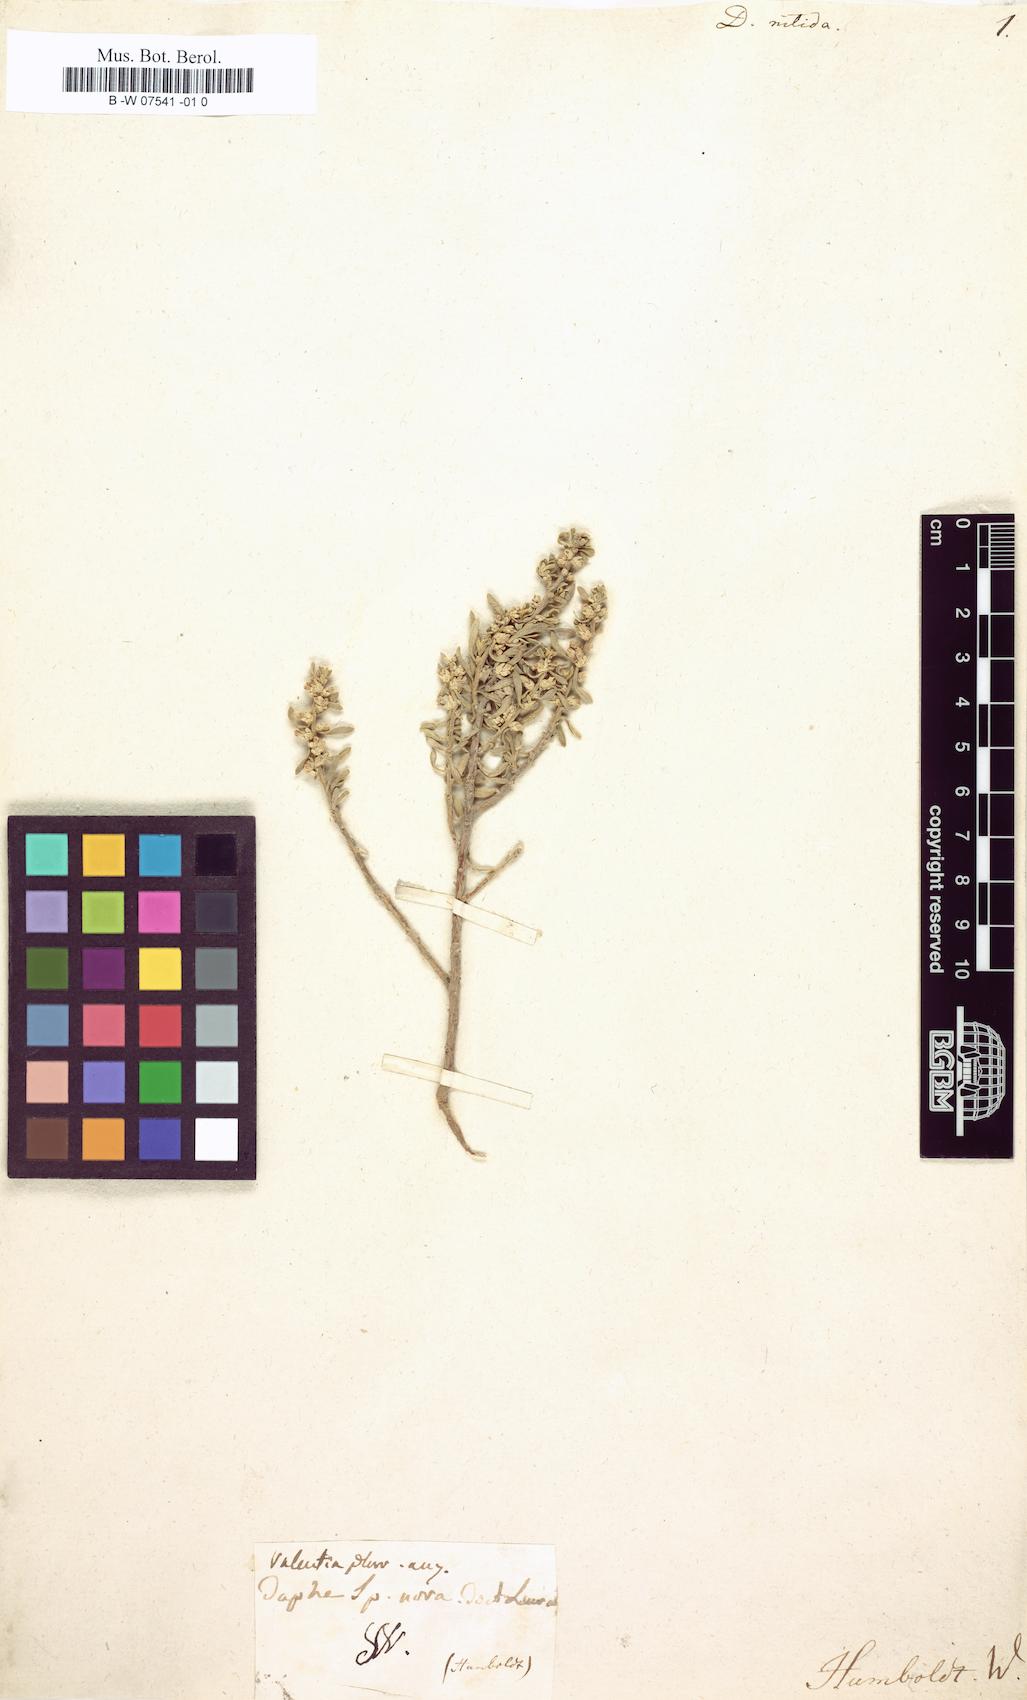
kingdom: Plantae
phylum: Tracheophyta
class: Magnoliopsida
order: Malvales
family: Thymelaeaceae
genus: Thymelaea
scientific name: Thymelaea argentata
